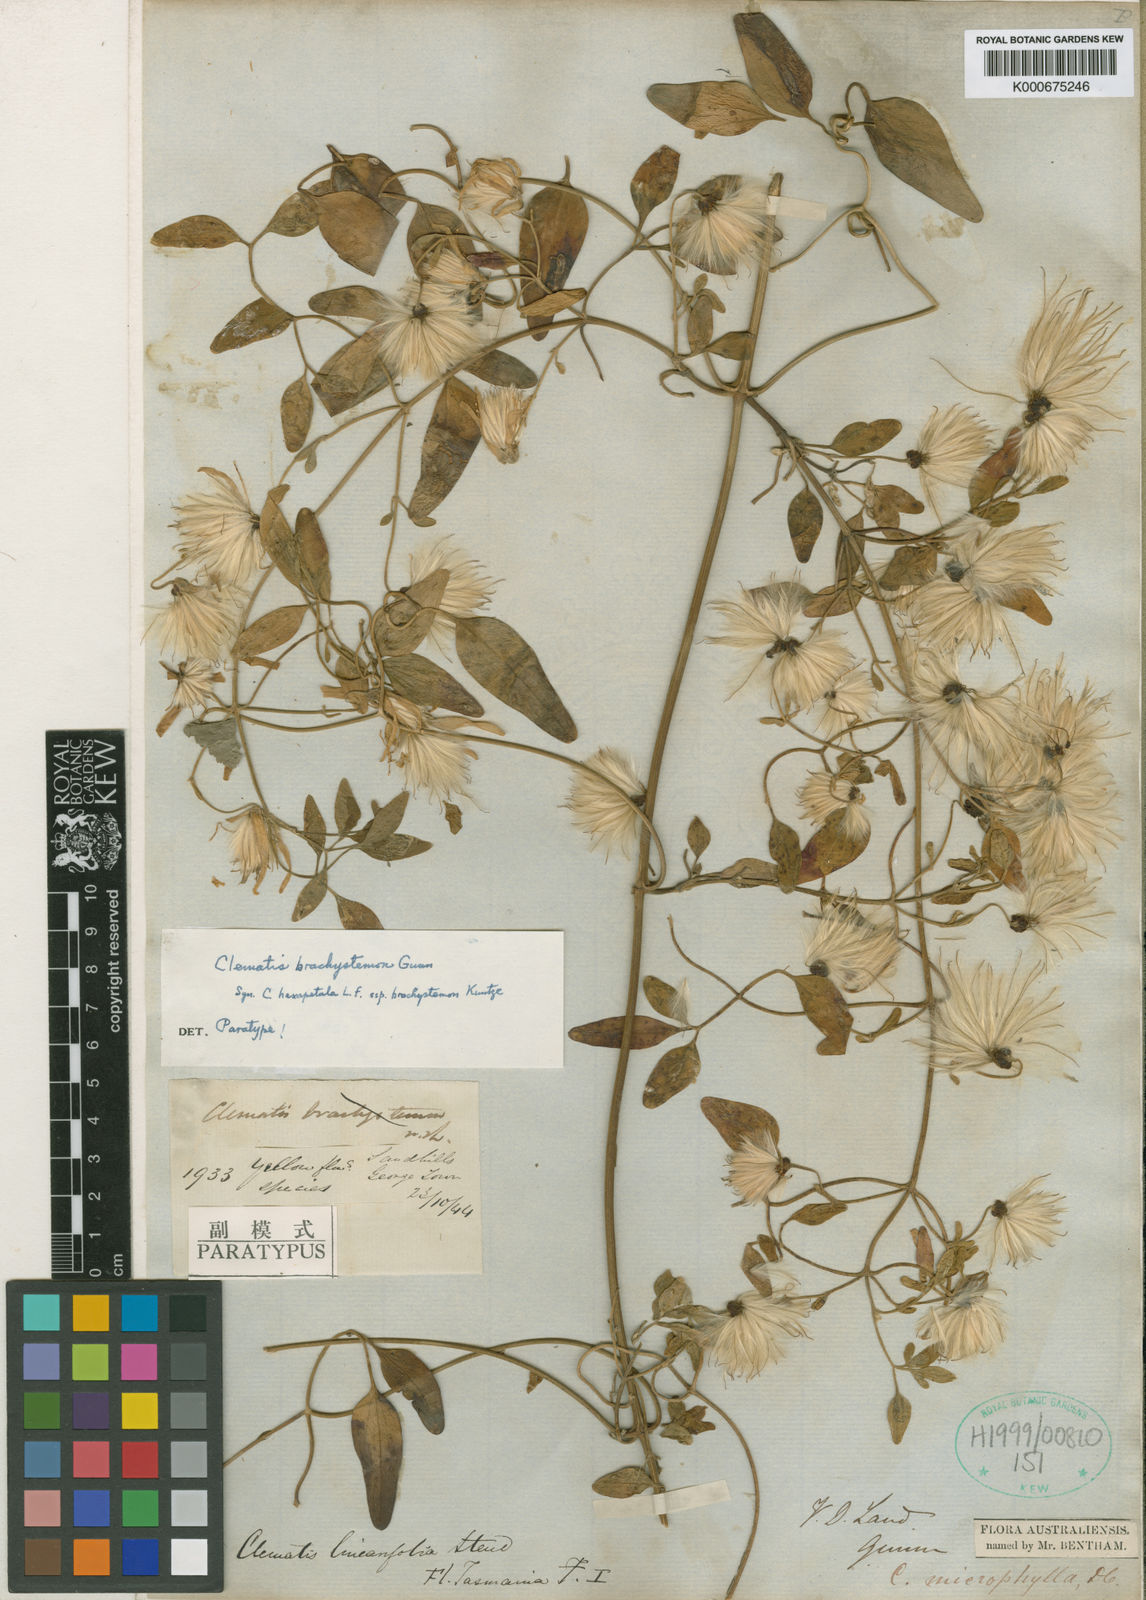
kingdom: Plantae
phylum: Tracheophyta
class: Magnoliopsida
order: Ranunculales
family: Ranunculaceae
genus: Clematis
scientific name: Clematis clitorioides
